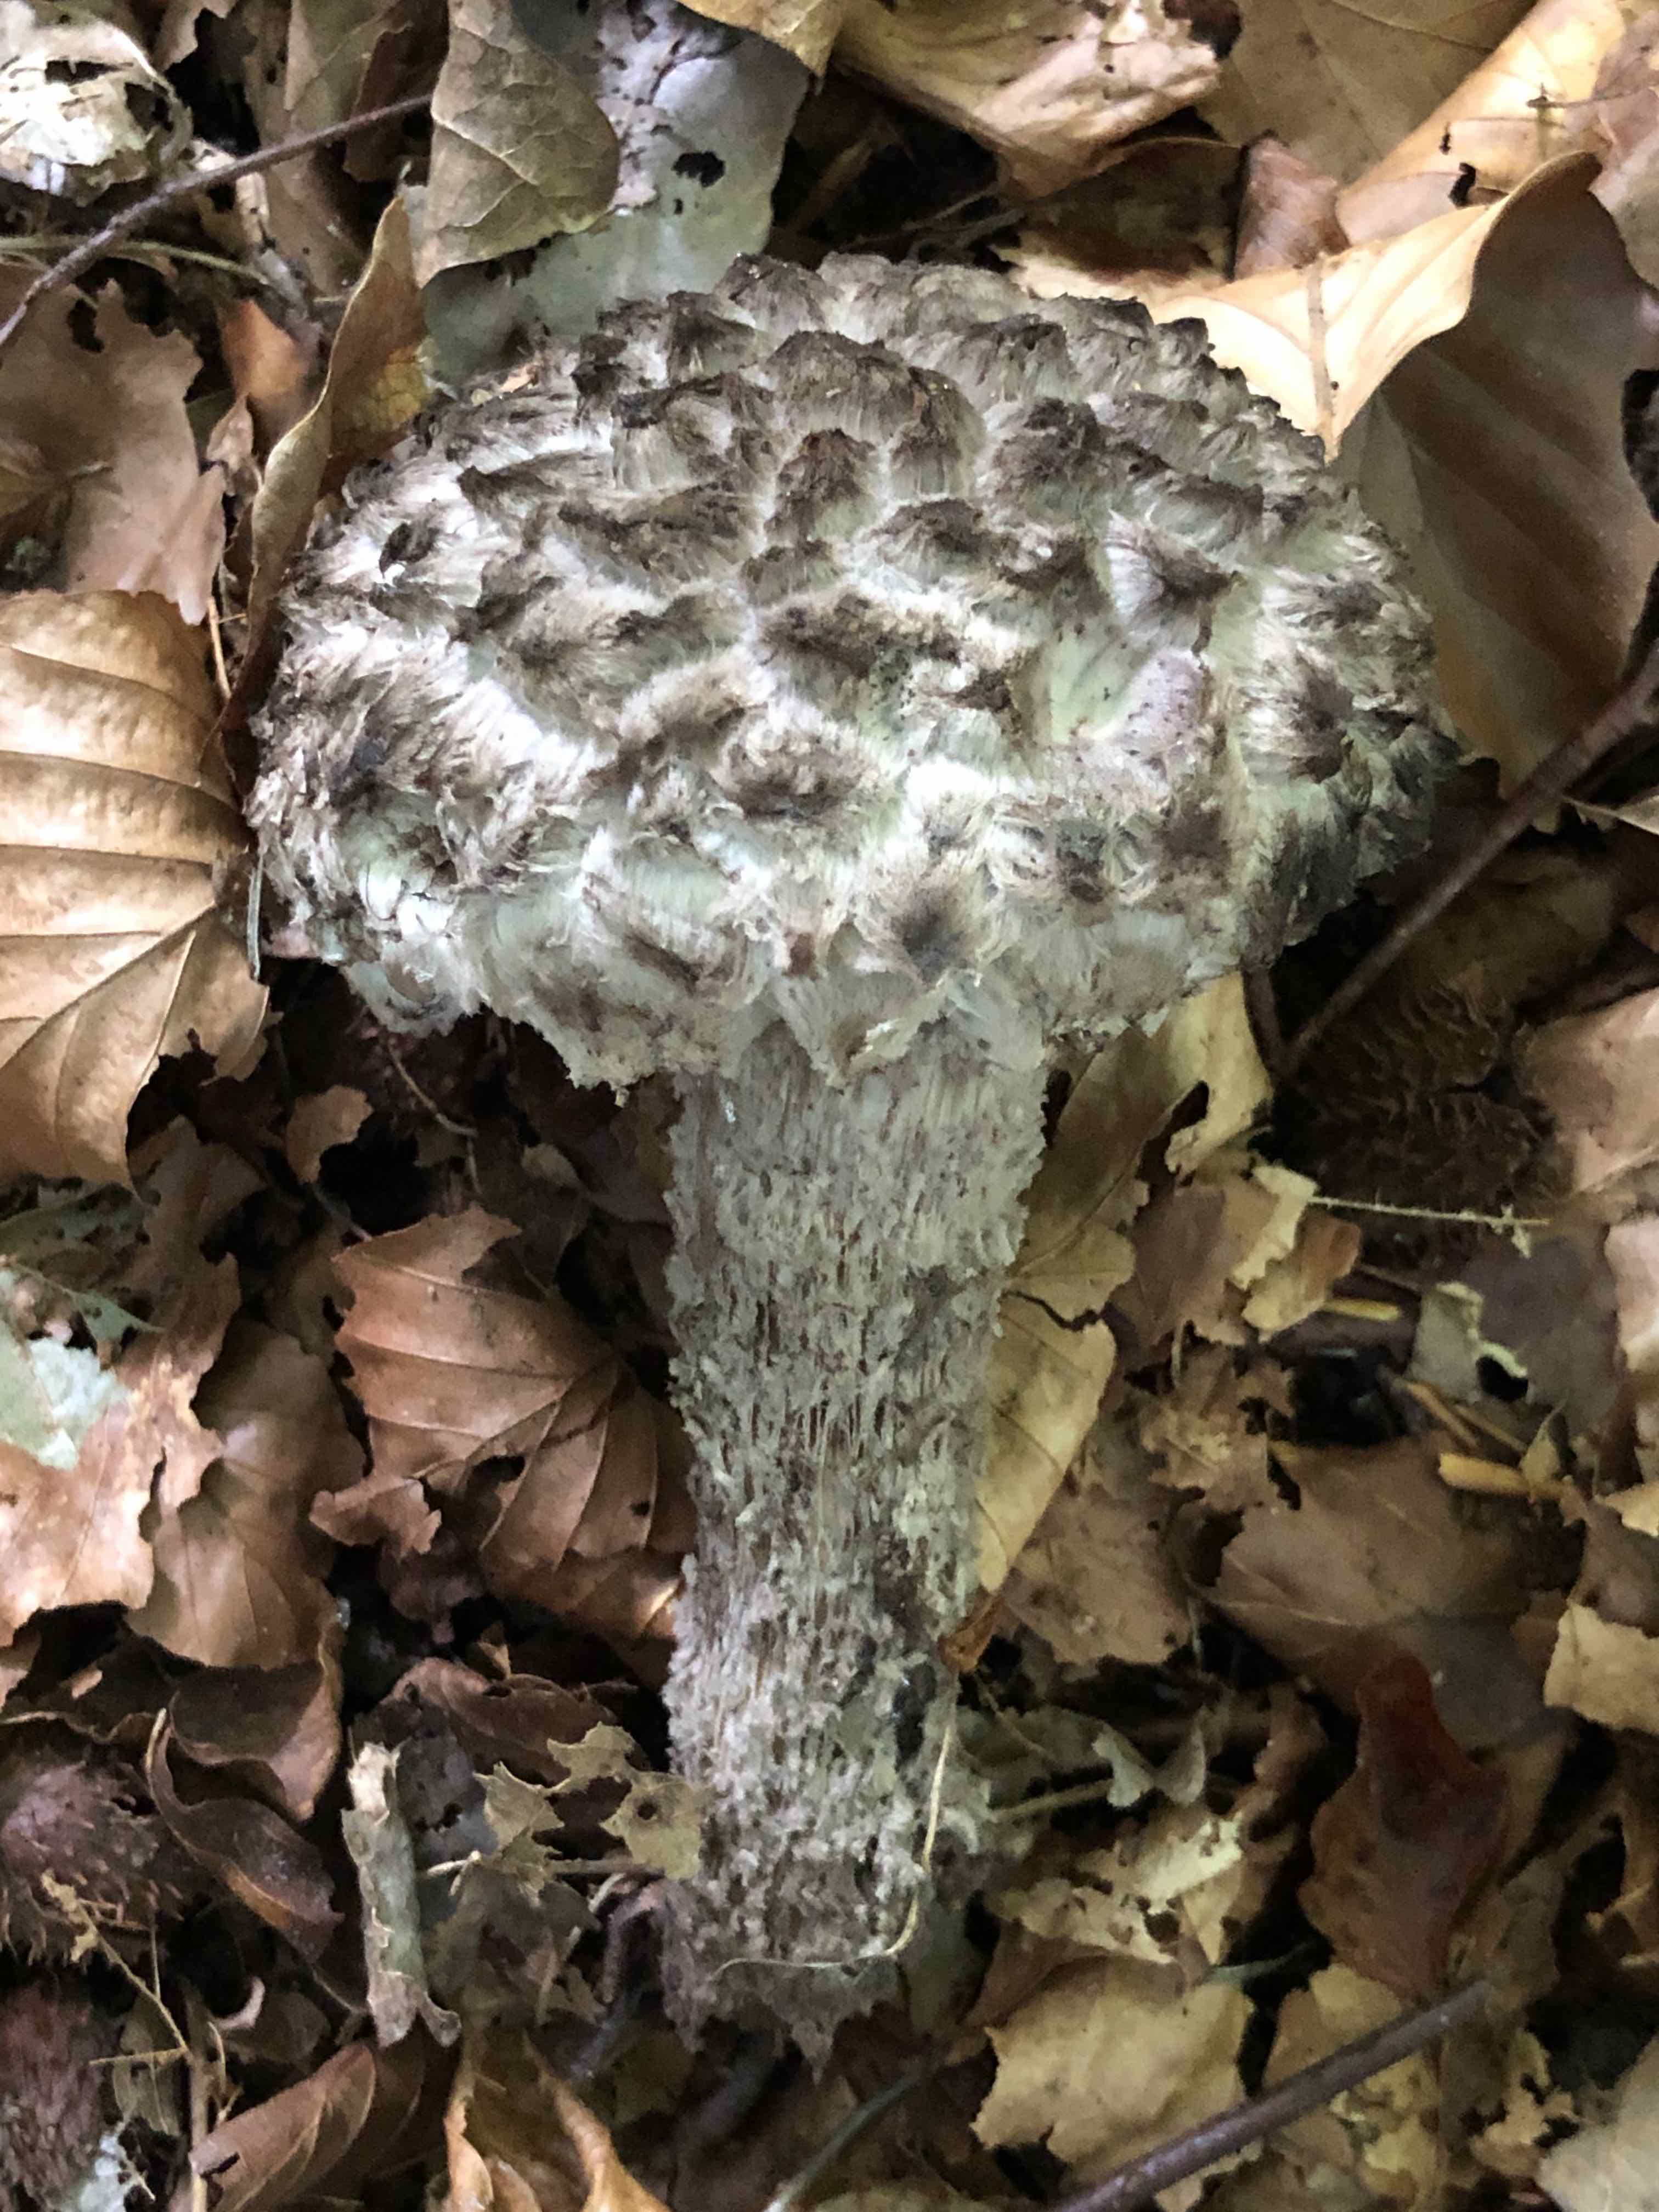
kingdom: Fungi
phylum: Basidiomycota
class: Agaricomycetes
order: Boletales
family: Boletaceae
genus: Strobilomyces
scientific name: Strobilomyces strobilaceus
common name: koglerørhat
